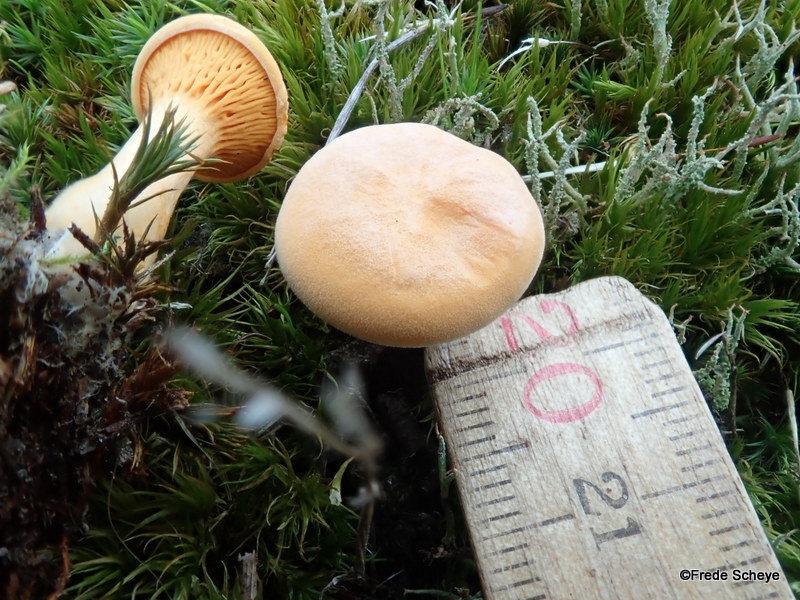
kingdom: Fungi
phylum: Basidiomycota
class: Agaricomycetes
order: Boletales
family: Hygrophoropsidaceae
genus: Hygrophoropsis
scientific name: Hygrophoropsis aurantiaca
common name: almindelig orangekantarel
